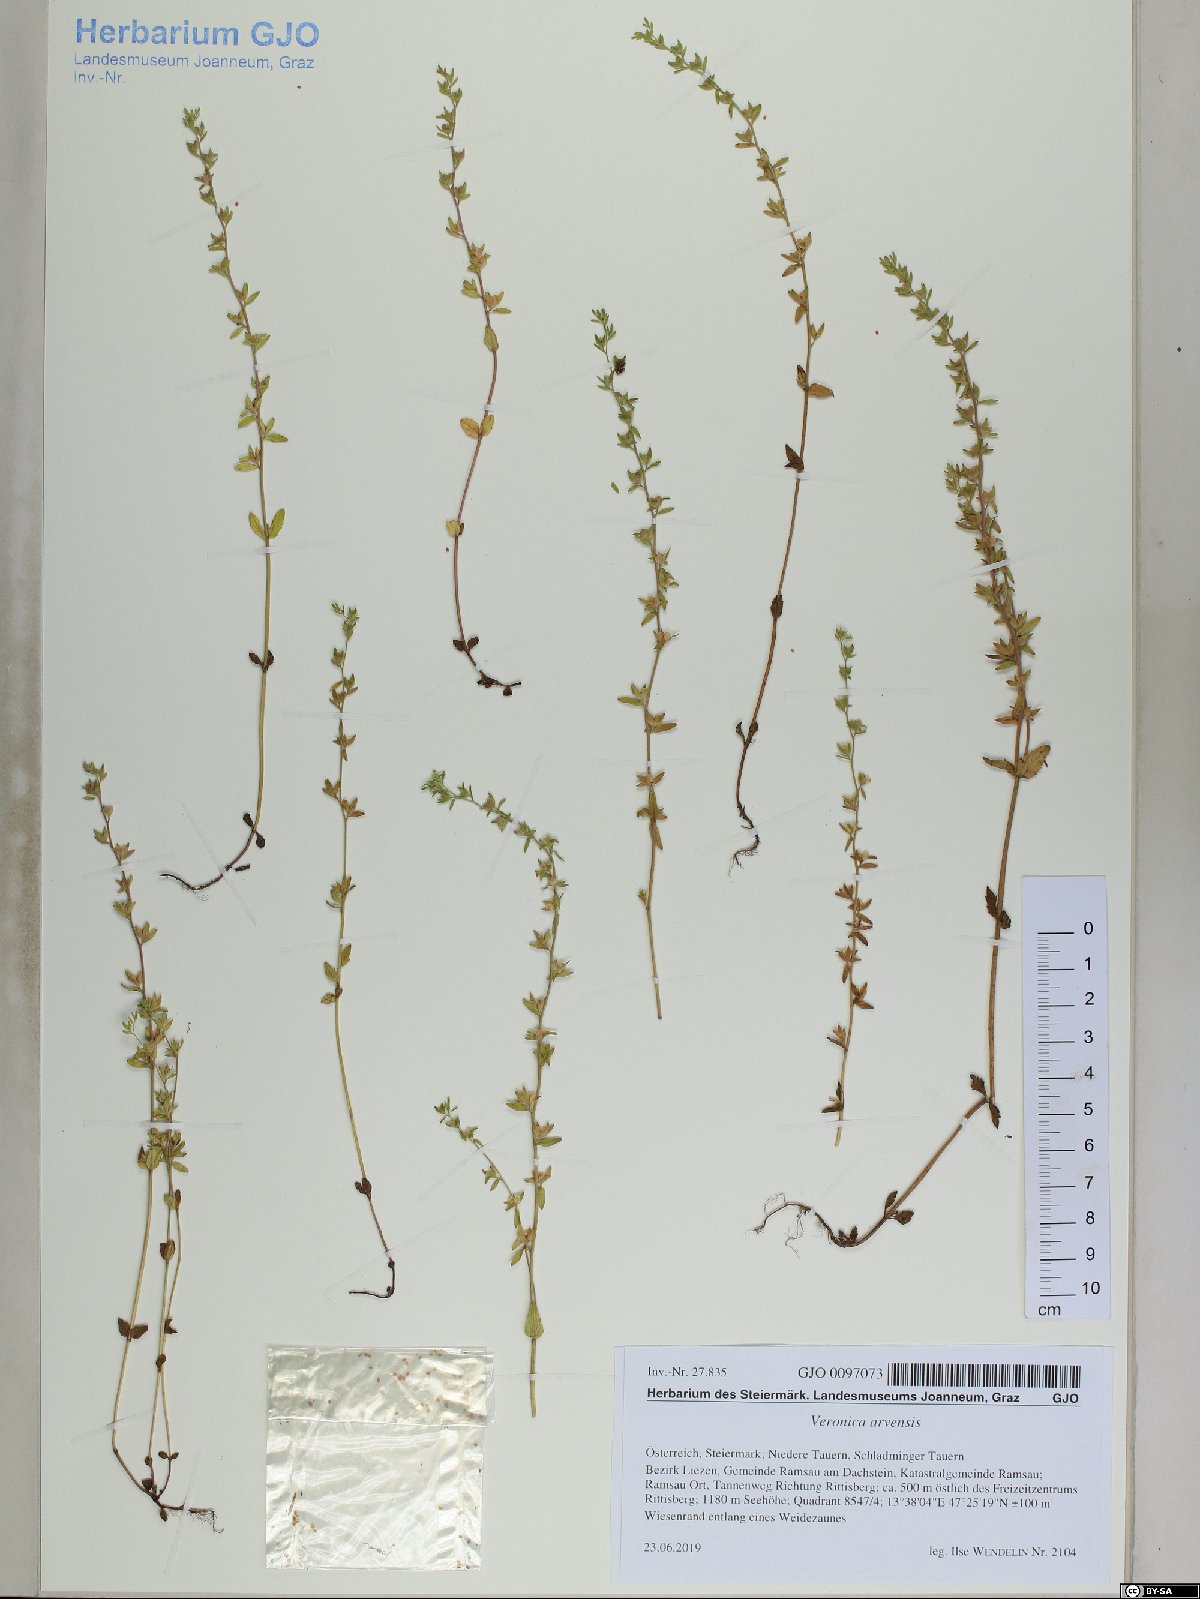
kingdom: Plantae
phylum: Tracheophyta
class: Magnoliopsida
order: Lamiales
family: Plantaginaceae
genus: Veronica
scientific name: Veronica arvensis
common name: Corn speedwell
